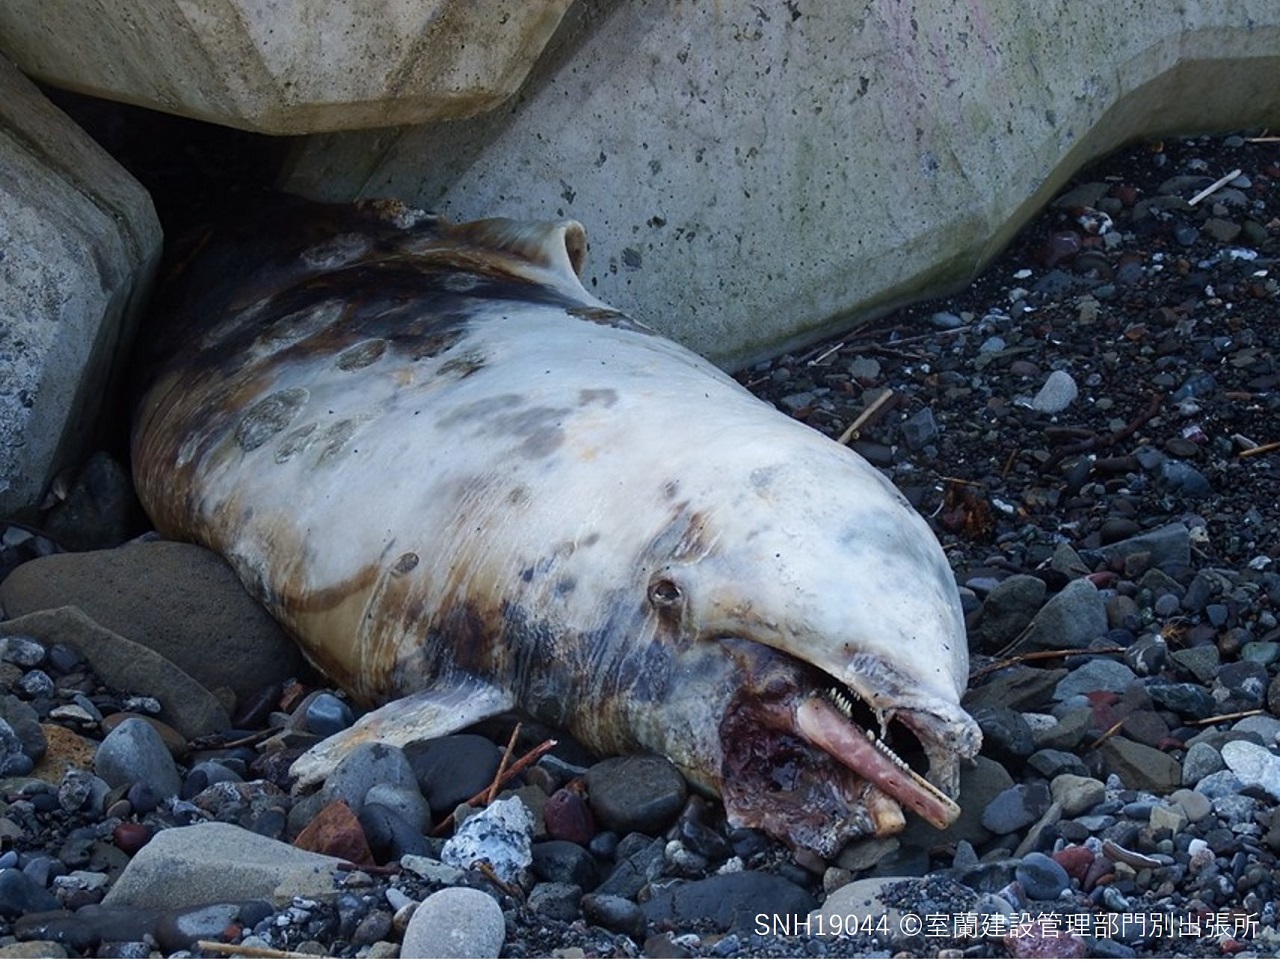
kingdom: Animalia
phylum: Chordata
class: Mammalia
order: Cetacea
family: Delphinidae
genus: Lagenorhynchus
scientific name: Lagenorhynchus obliquidens
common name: Pacific white-sided dolphin
